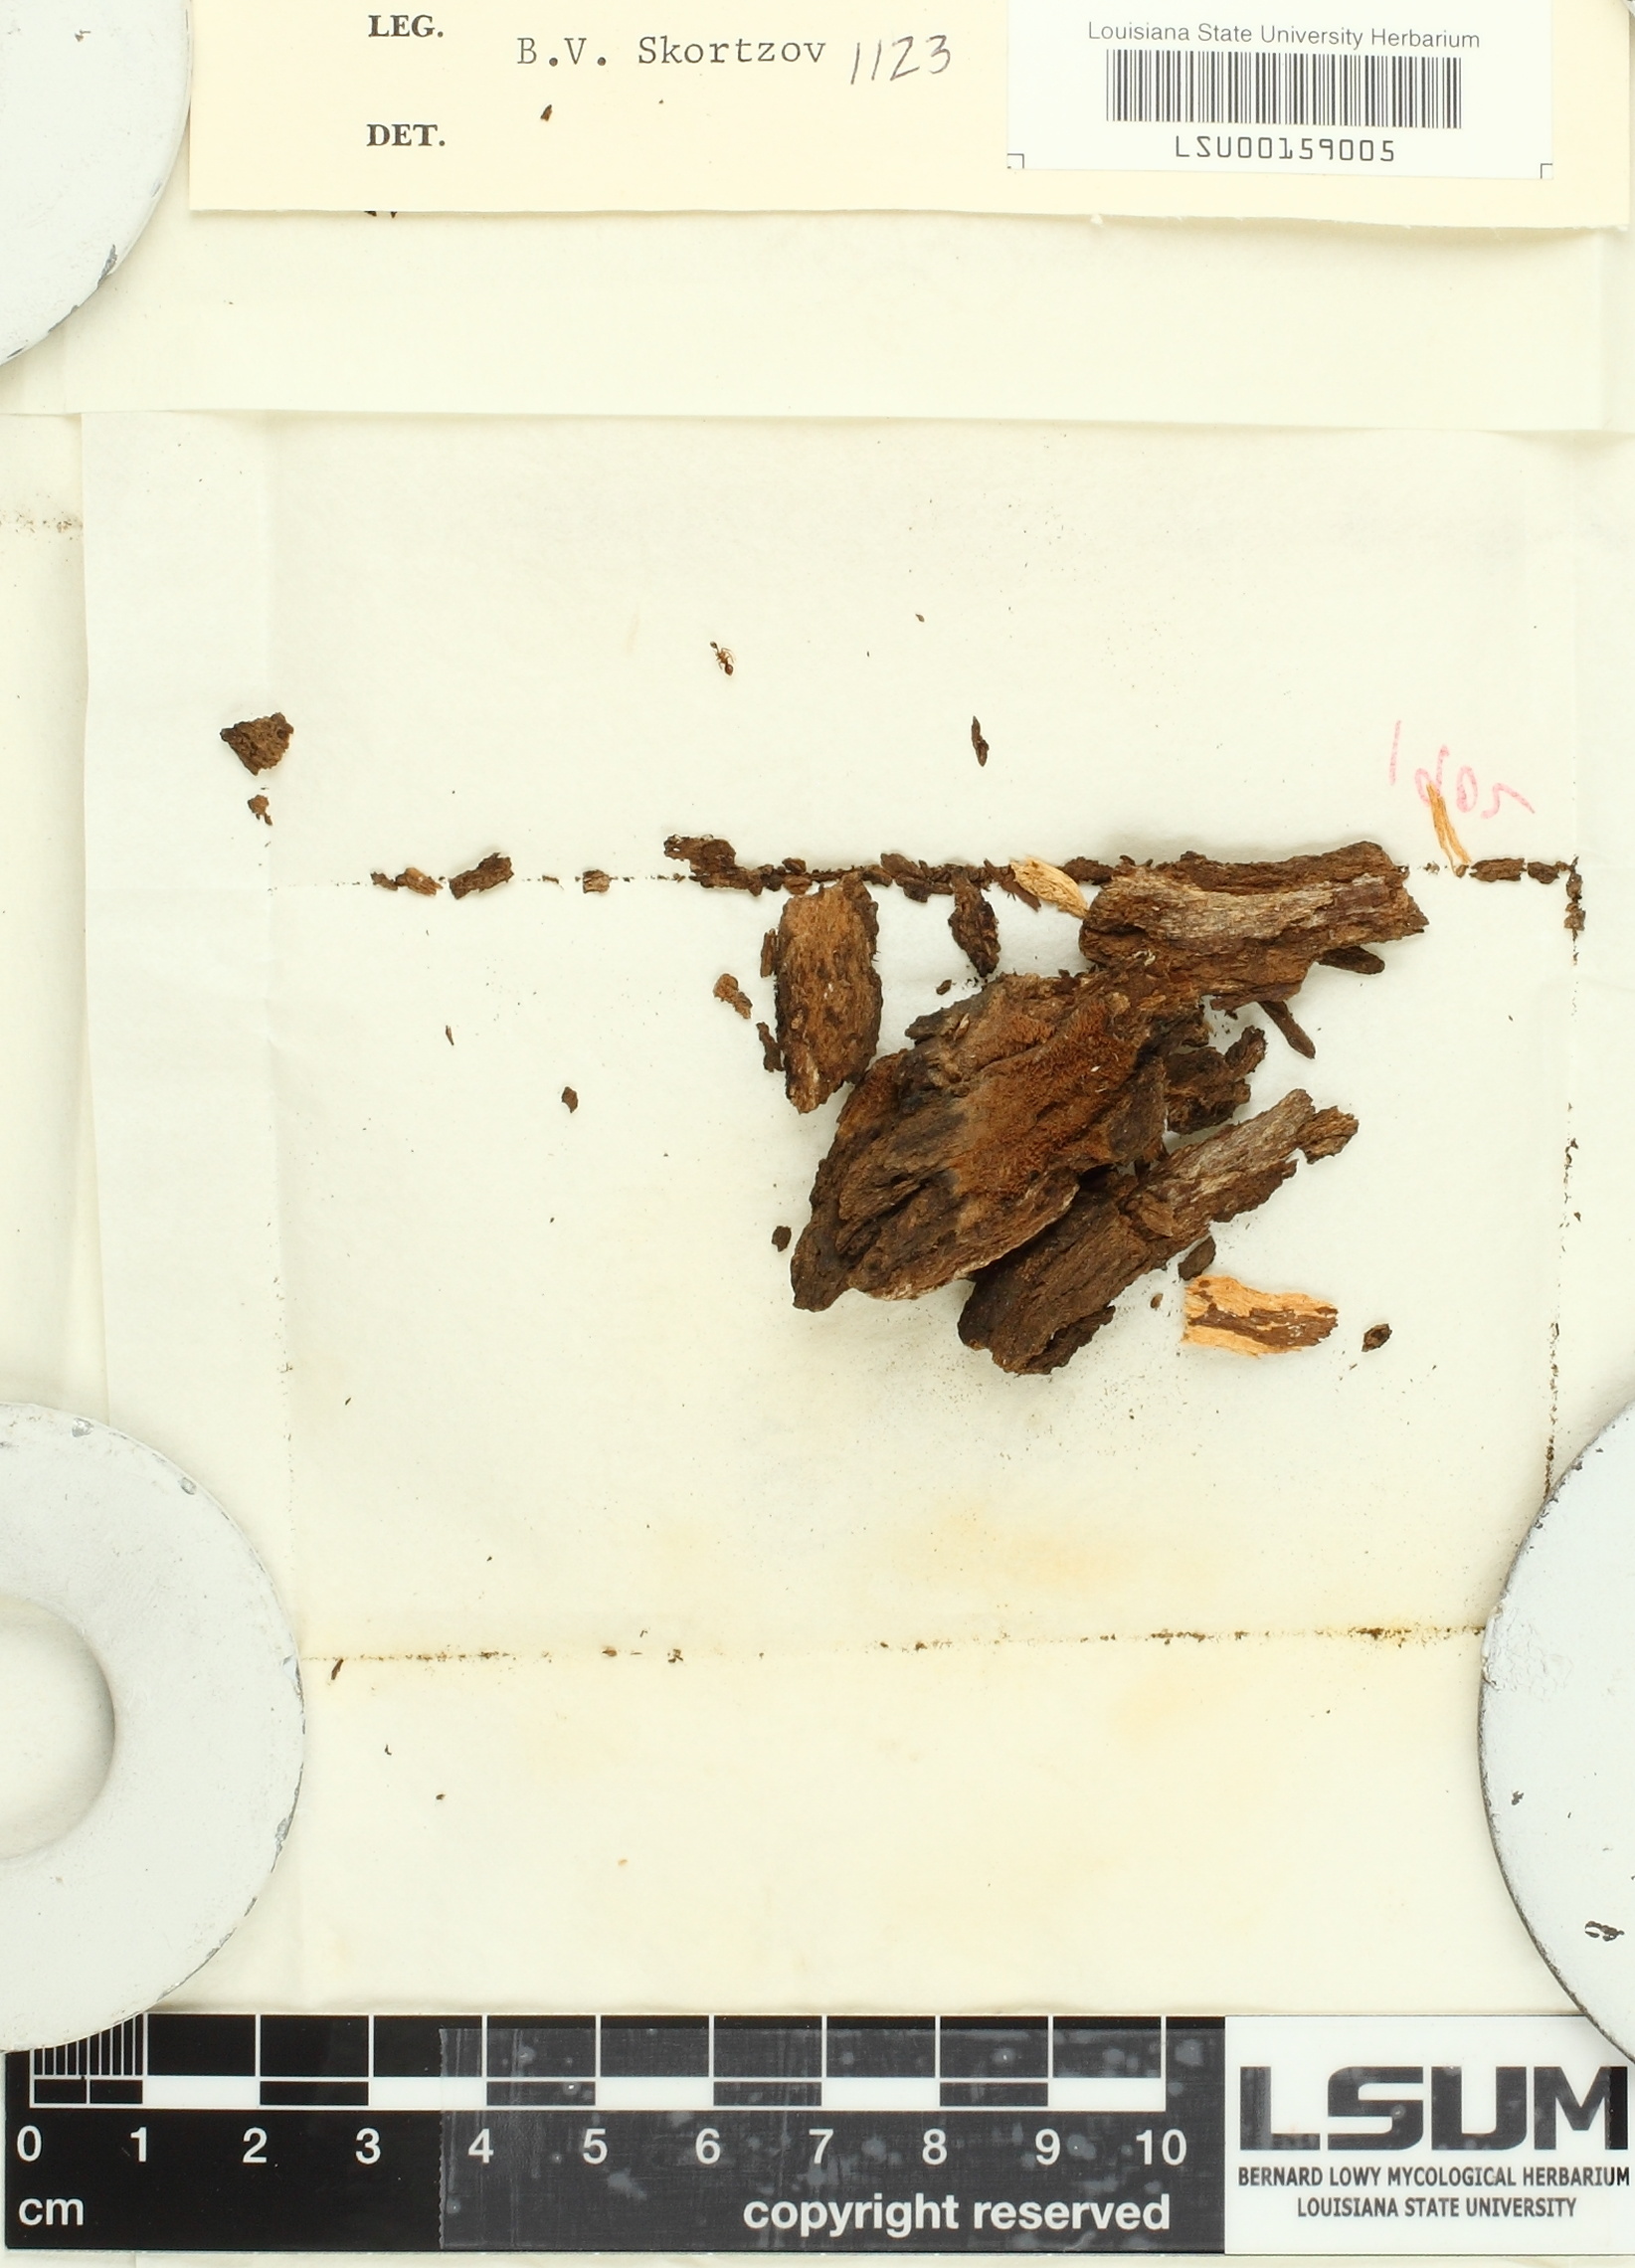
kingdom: Fungi
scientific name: Fungi
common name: Fungi
